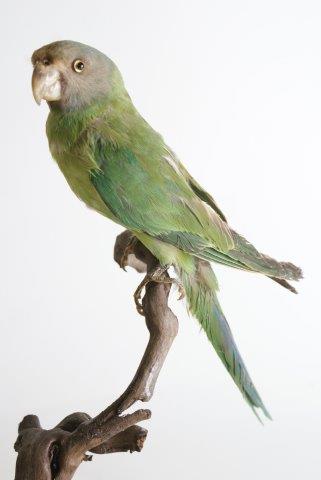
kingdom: Animalia
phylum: Chordata
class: Aves
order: Psittaciformes
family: Psittacidae
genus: Psittacula
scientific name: Psittacula cyanocephala
